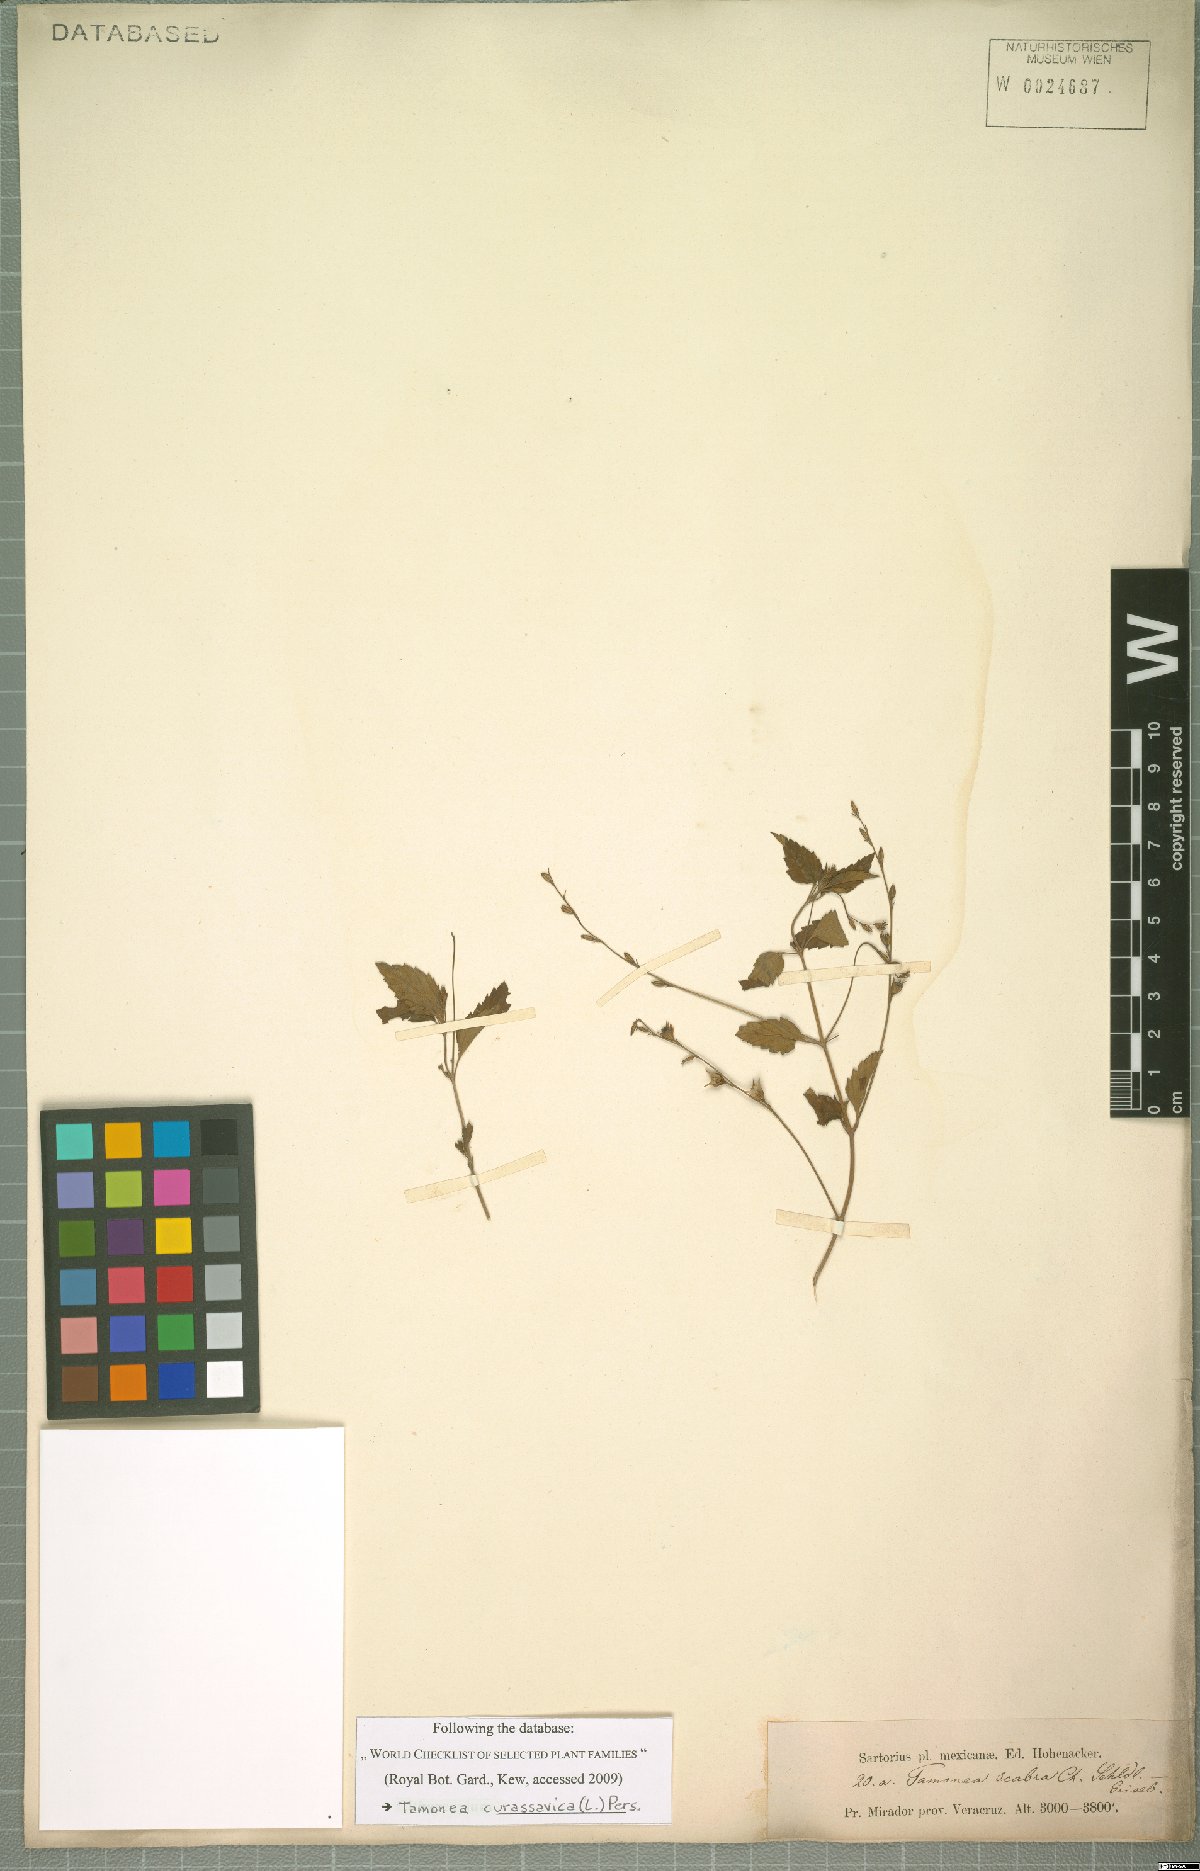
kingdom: Plantae
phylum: Tracheophyta
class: Magnoliopsida
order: Lamiales
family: Verbenaceae
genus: Tamonea
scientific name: Tamonea curassavica
